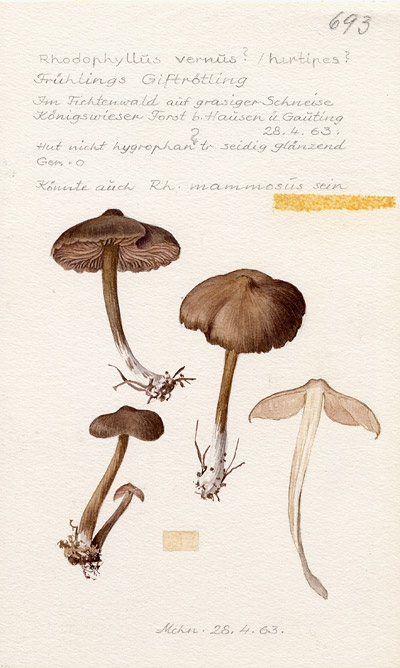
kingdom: Fungi
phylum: Basidiomycota
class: Agaricomycetes
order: Agaricales
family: Entolomataceae
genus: Entoloma
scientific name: Entoloma vernum
